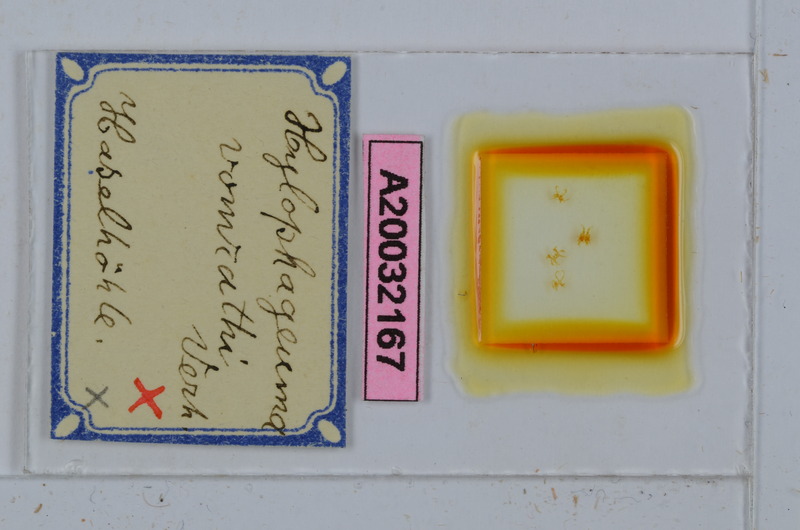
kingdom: Animalia
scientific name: Animalia
